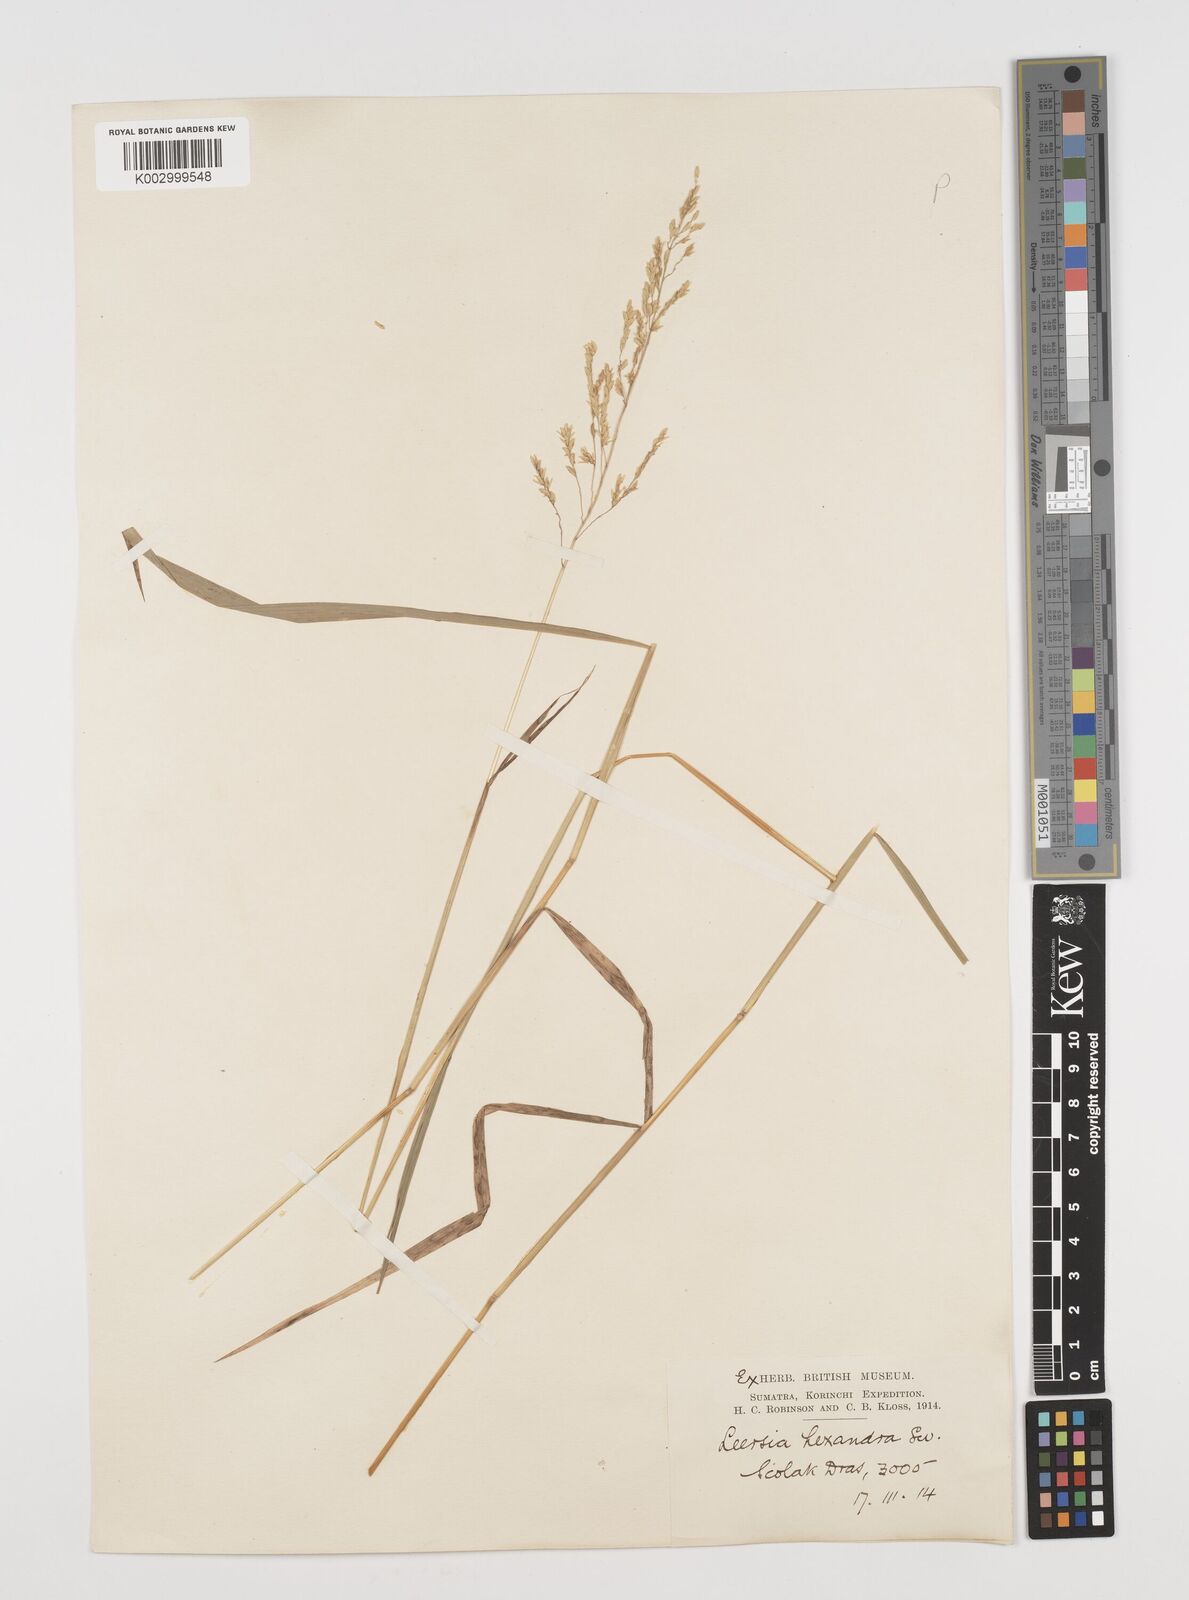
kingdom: Plantae
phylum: Tracheophyta
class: Liliopsida
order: Poales
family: Poaceae
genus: Leersia
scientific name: Leersia hexandra
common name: Southern cut grass
